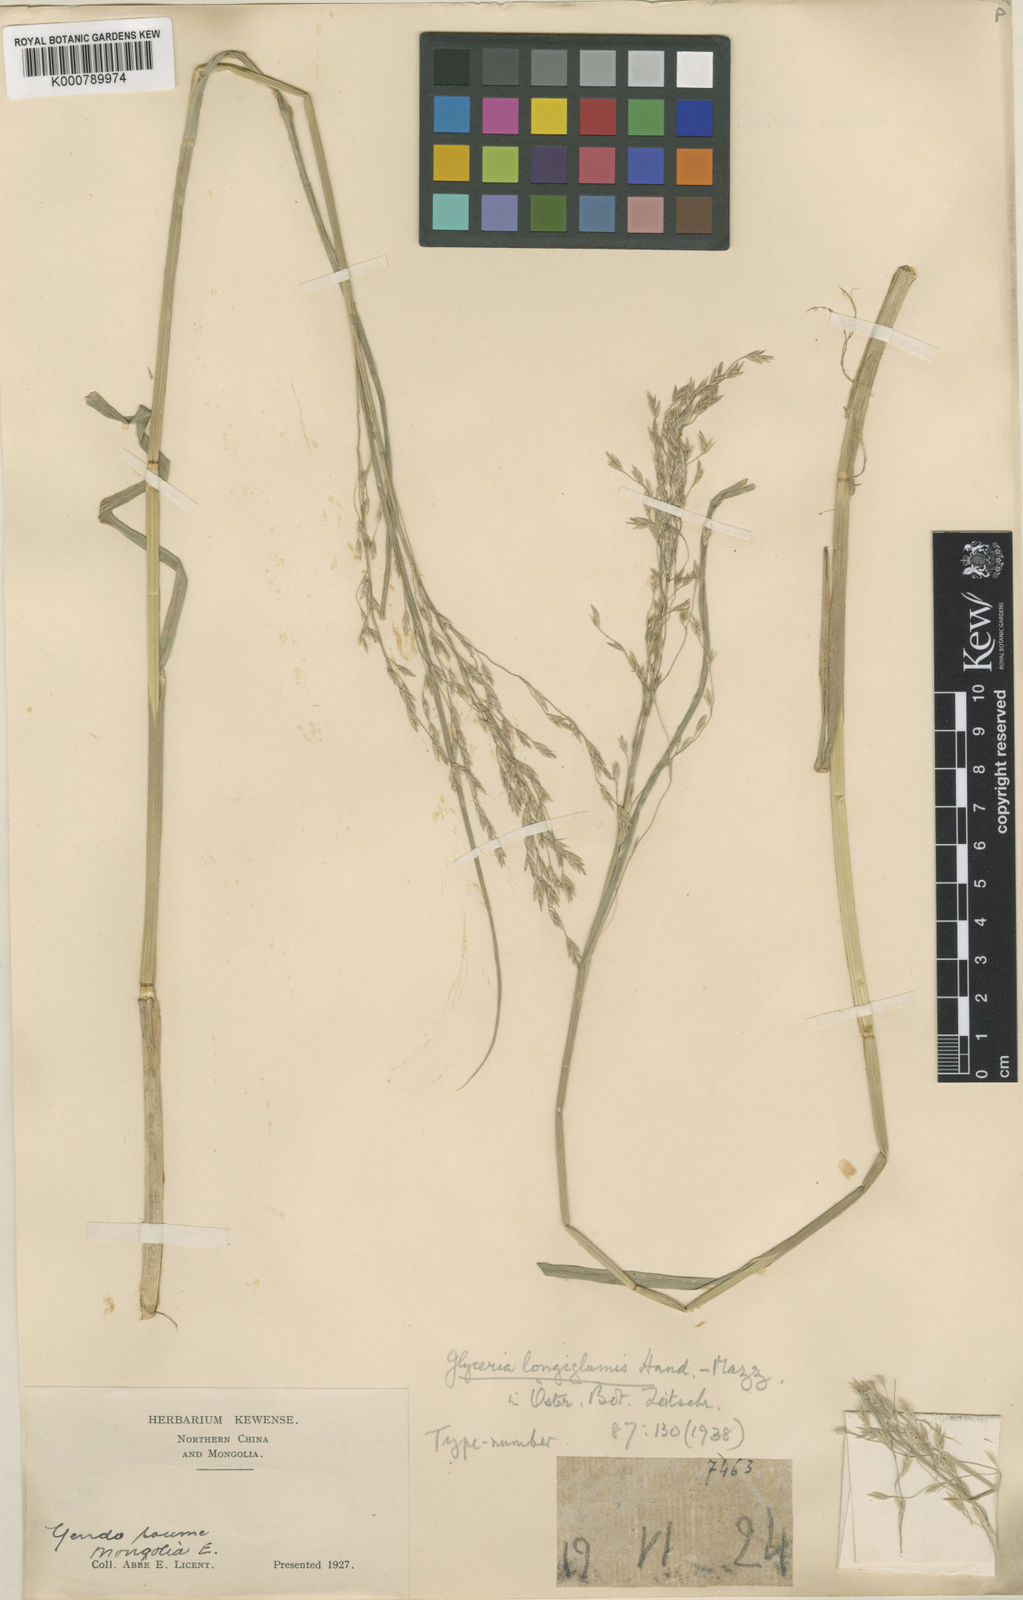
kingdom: Plantae
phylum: Tracheophyta
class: Liliopsida
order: Poales
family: Poaceae
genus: Glyceria
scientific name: Glyceria
